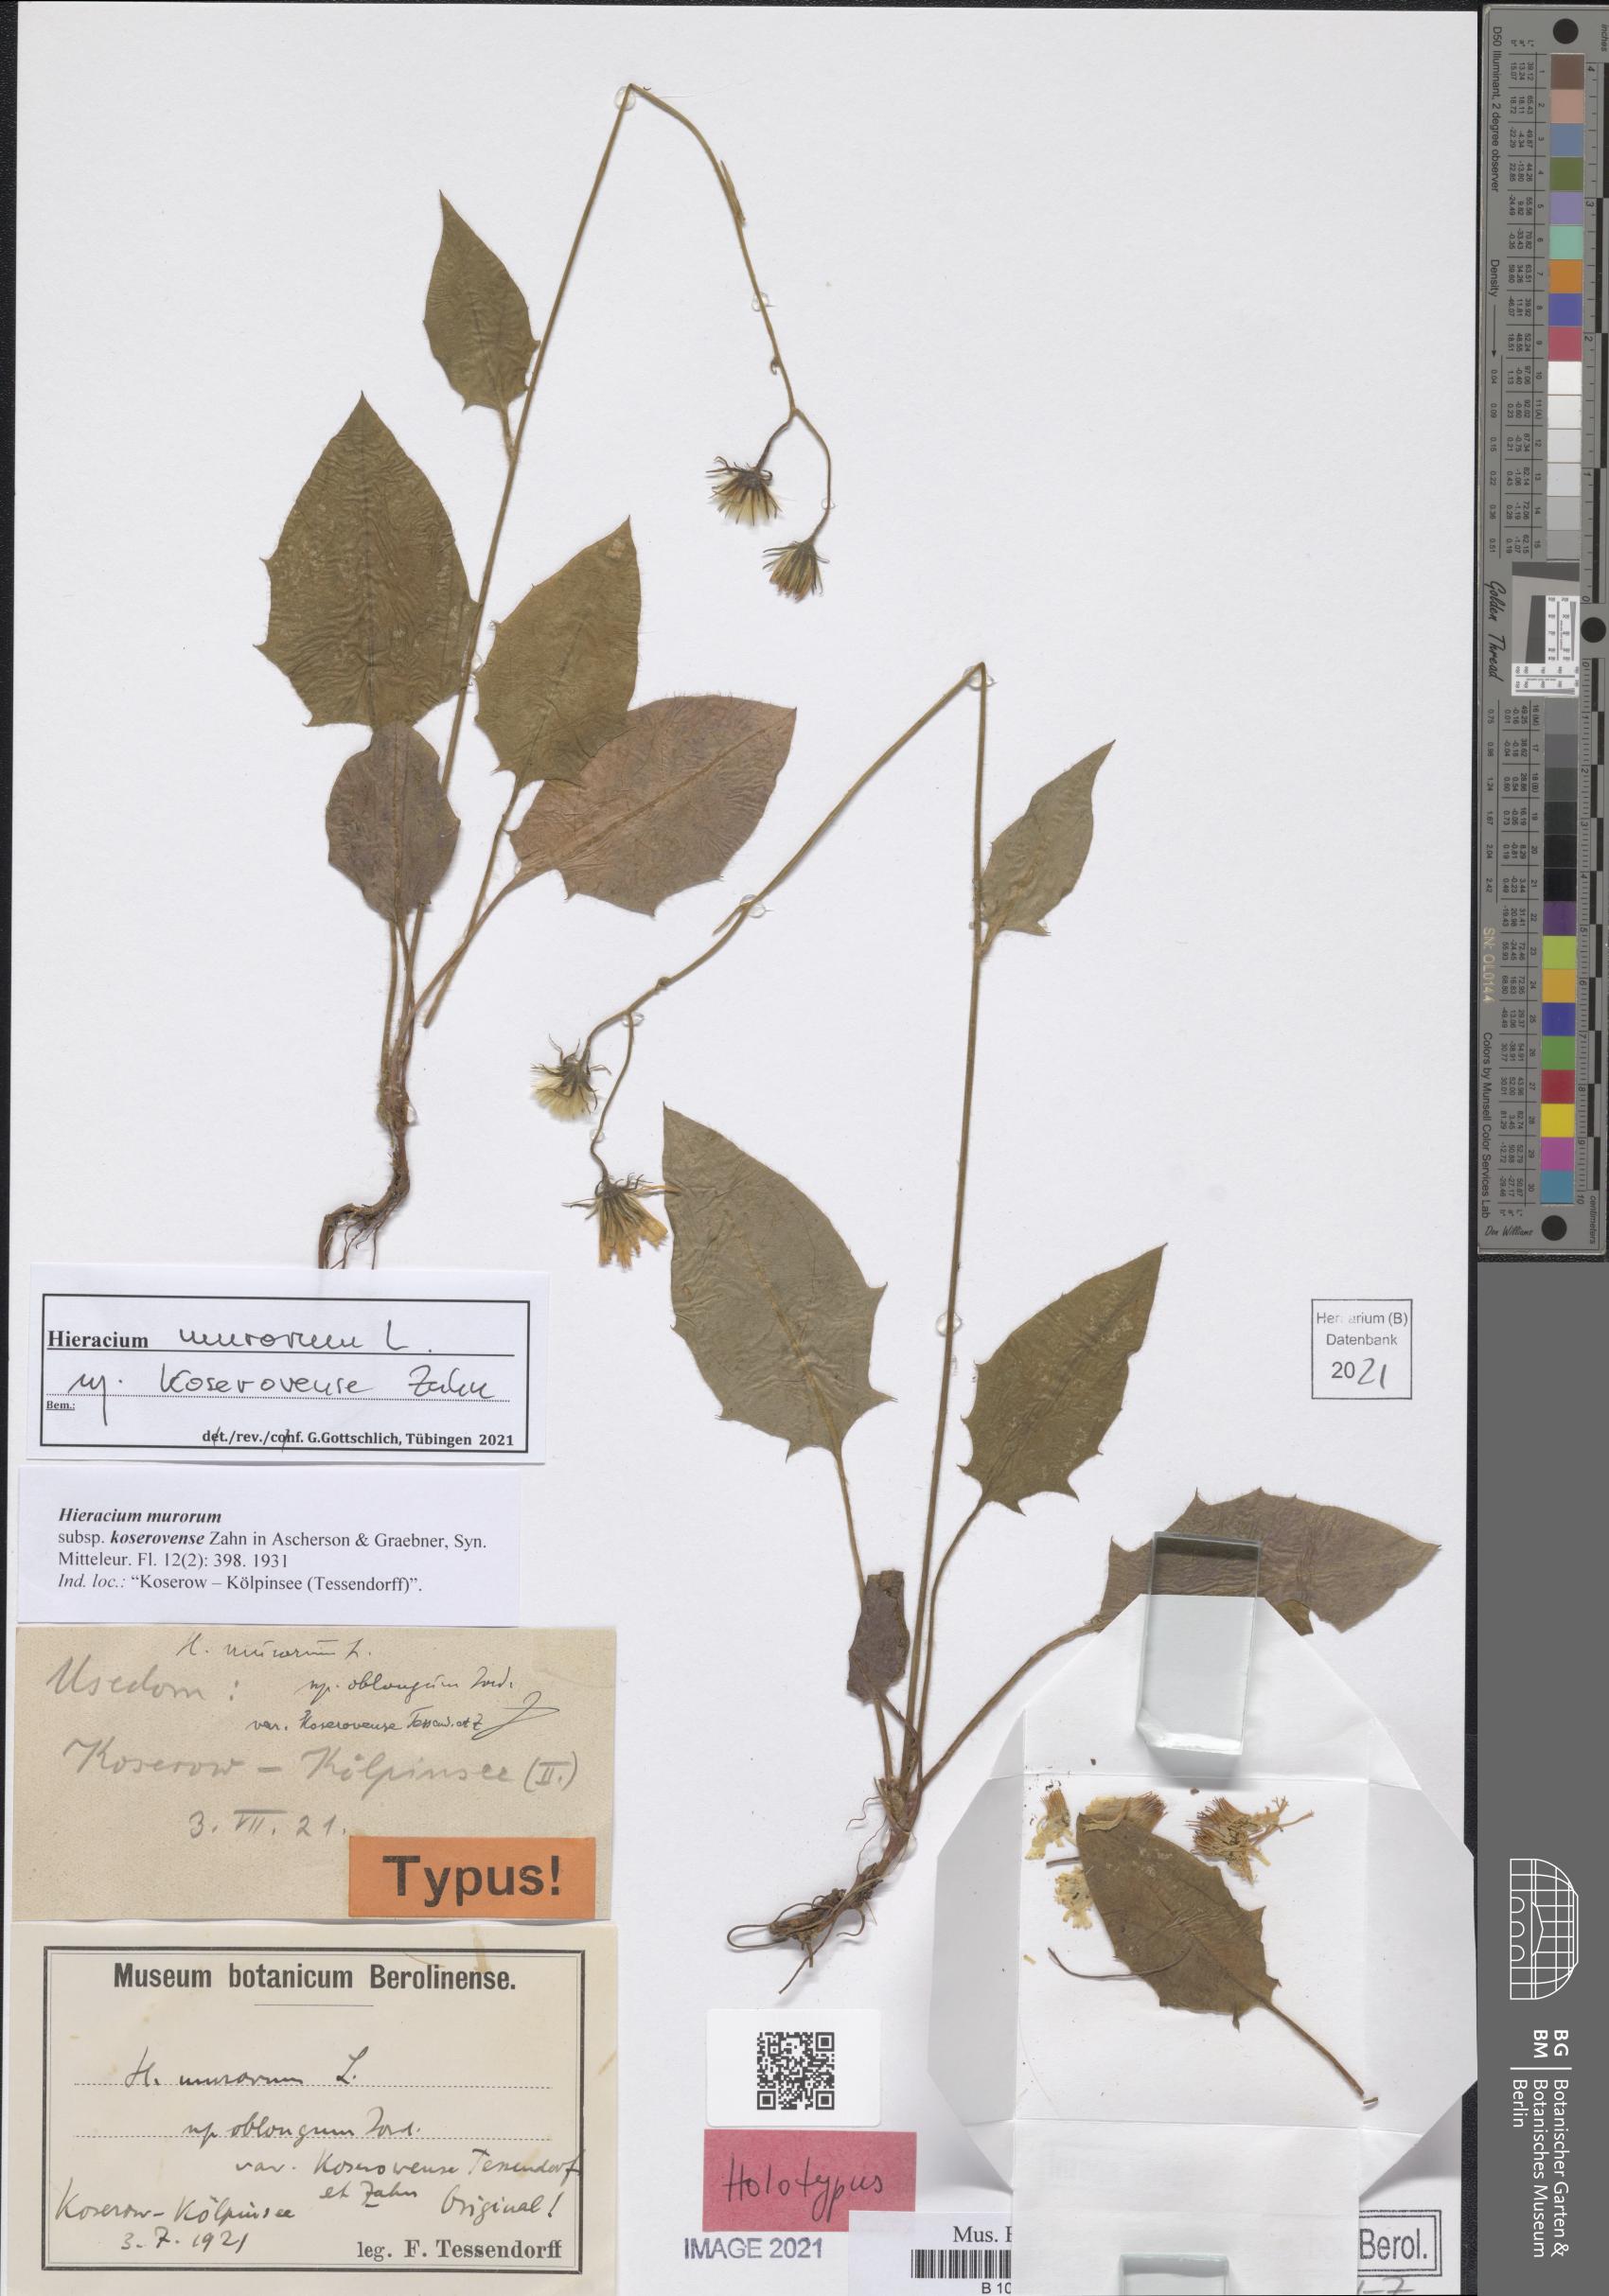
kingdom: Plantae
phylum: Tracheophyta
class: Magnoliopsida
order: Lamiales
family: Lamiaceae
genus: Dracocephalum
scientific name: Dracocephalum wallichii
